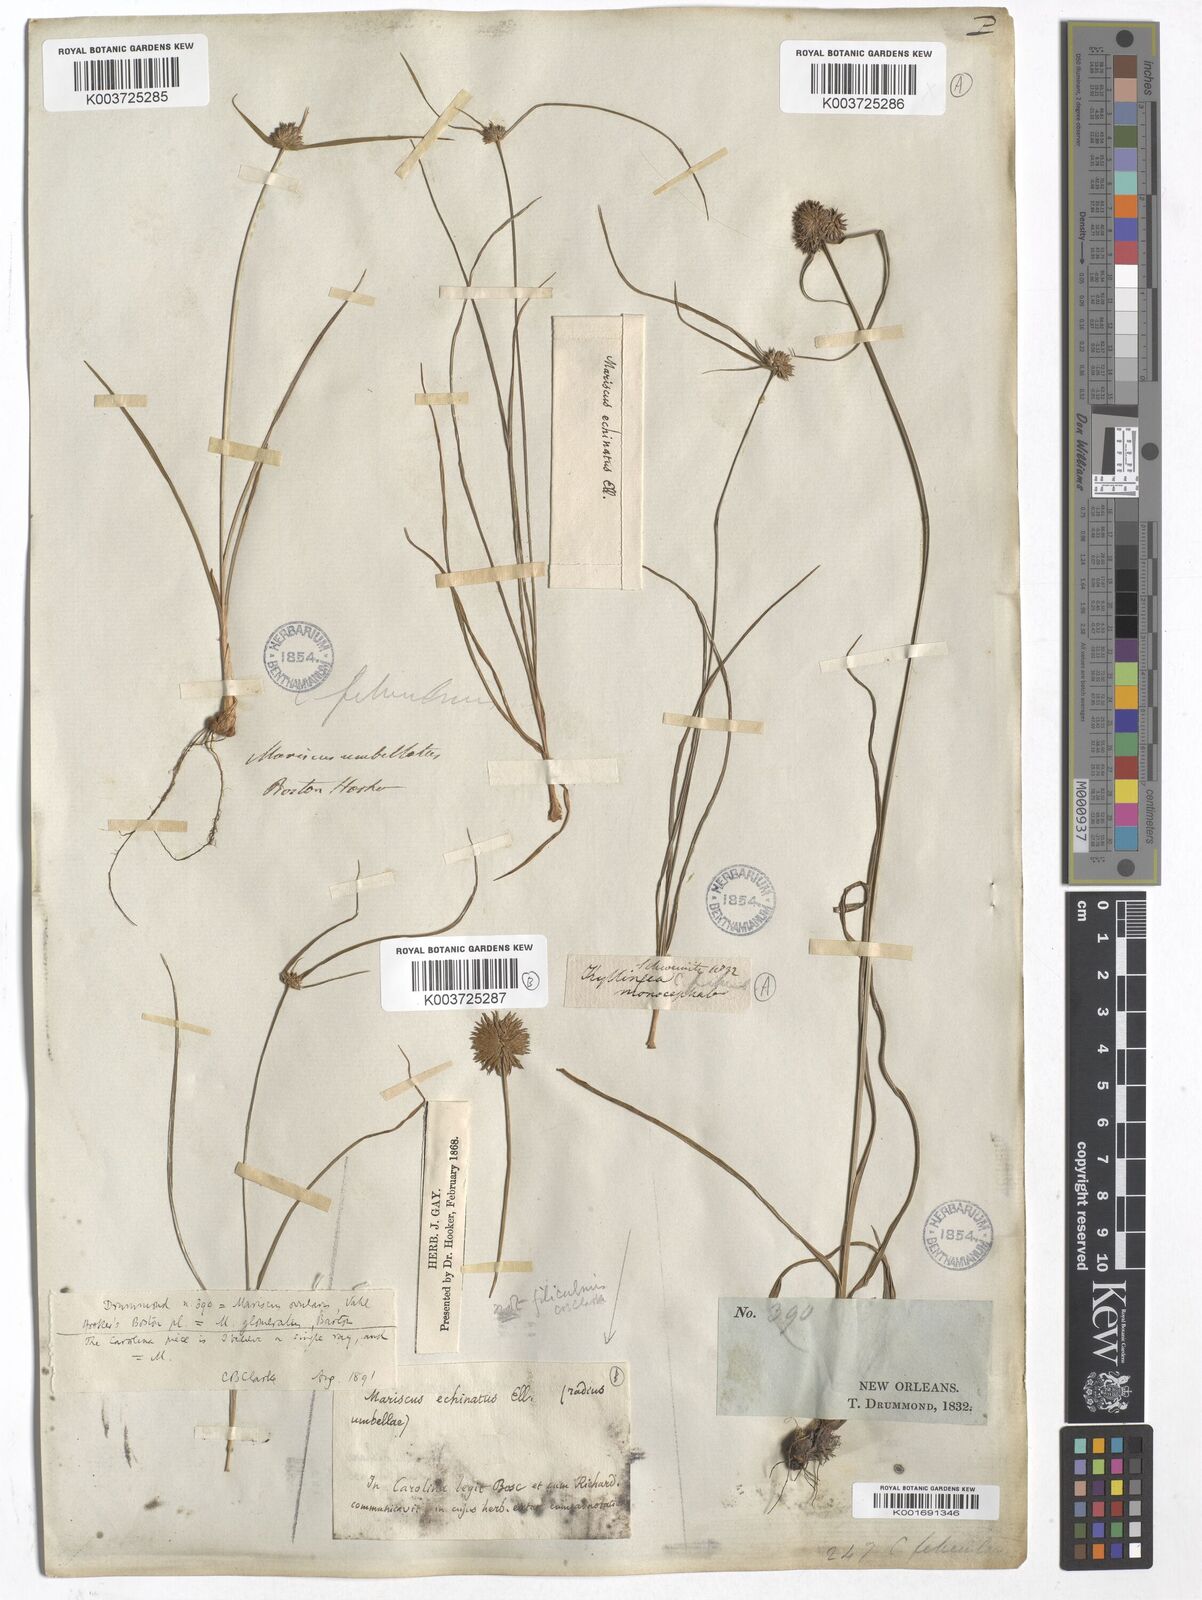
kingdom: Plantae
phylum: Tracheophyta
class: Liliopsida
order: Poales
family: Cyperaceae
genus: Cyperus
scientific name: Cyperus
